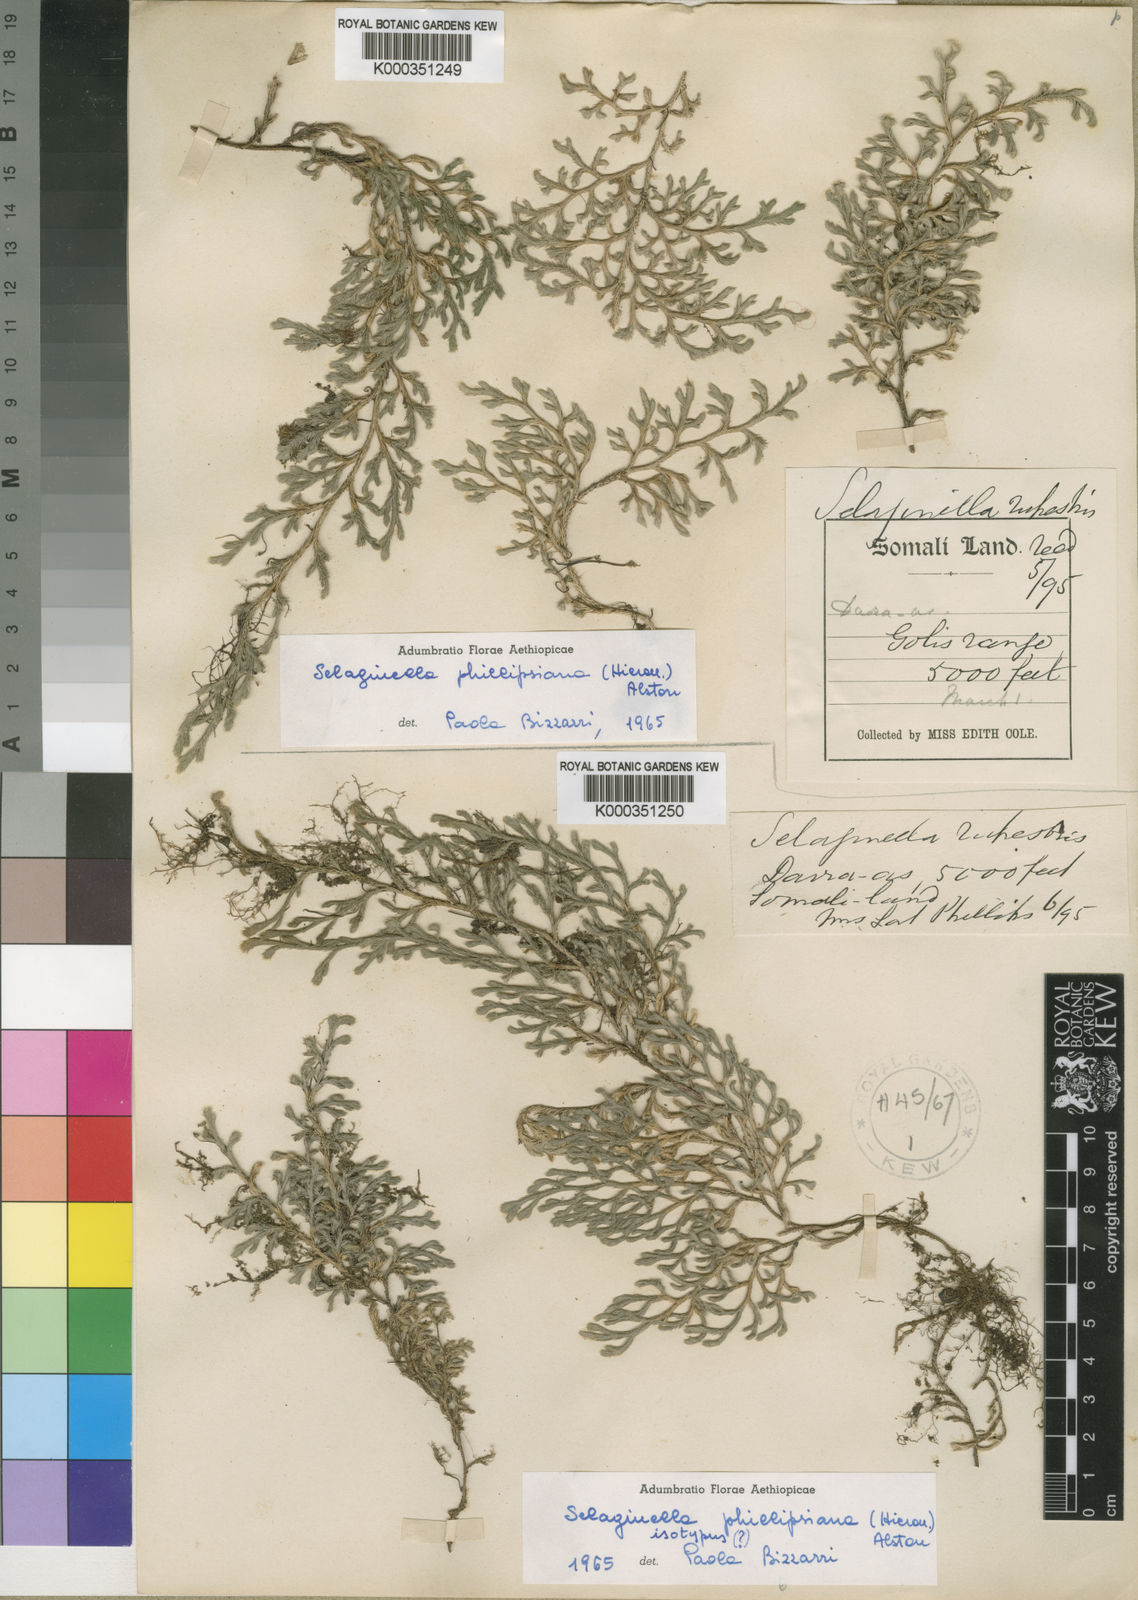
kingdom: Plantae
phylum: Tracheophyta
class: Lycopodiopsida
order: Selaginellales
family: Selaginellaceae
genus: Selaginella
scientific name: Selaginella
